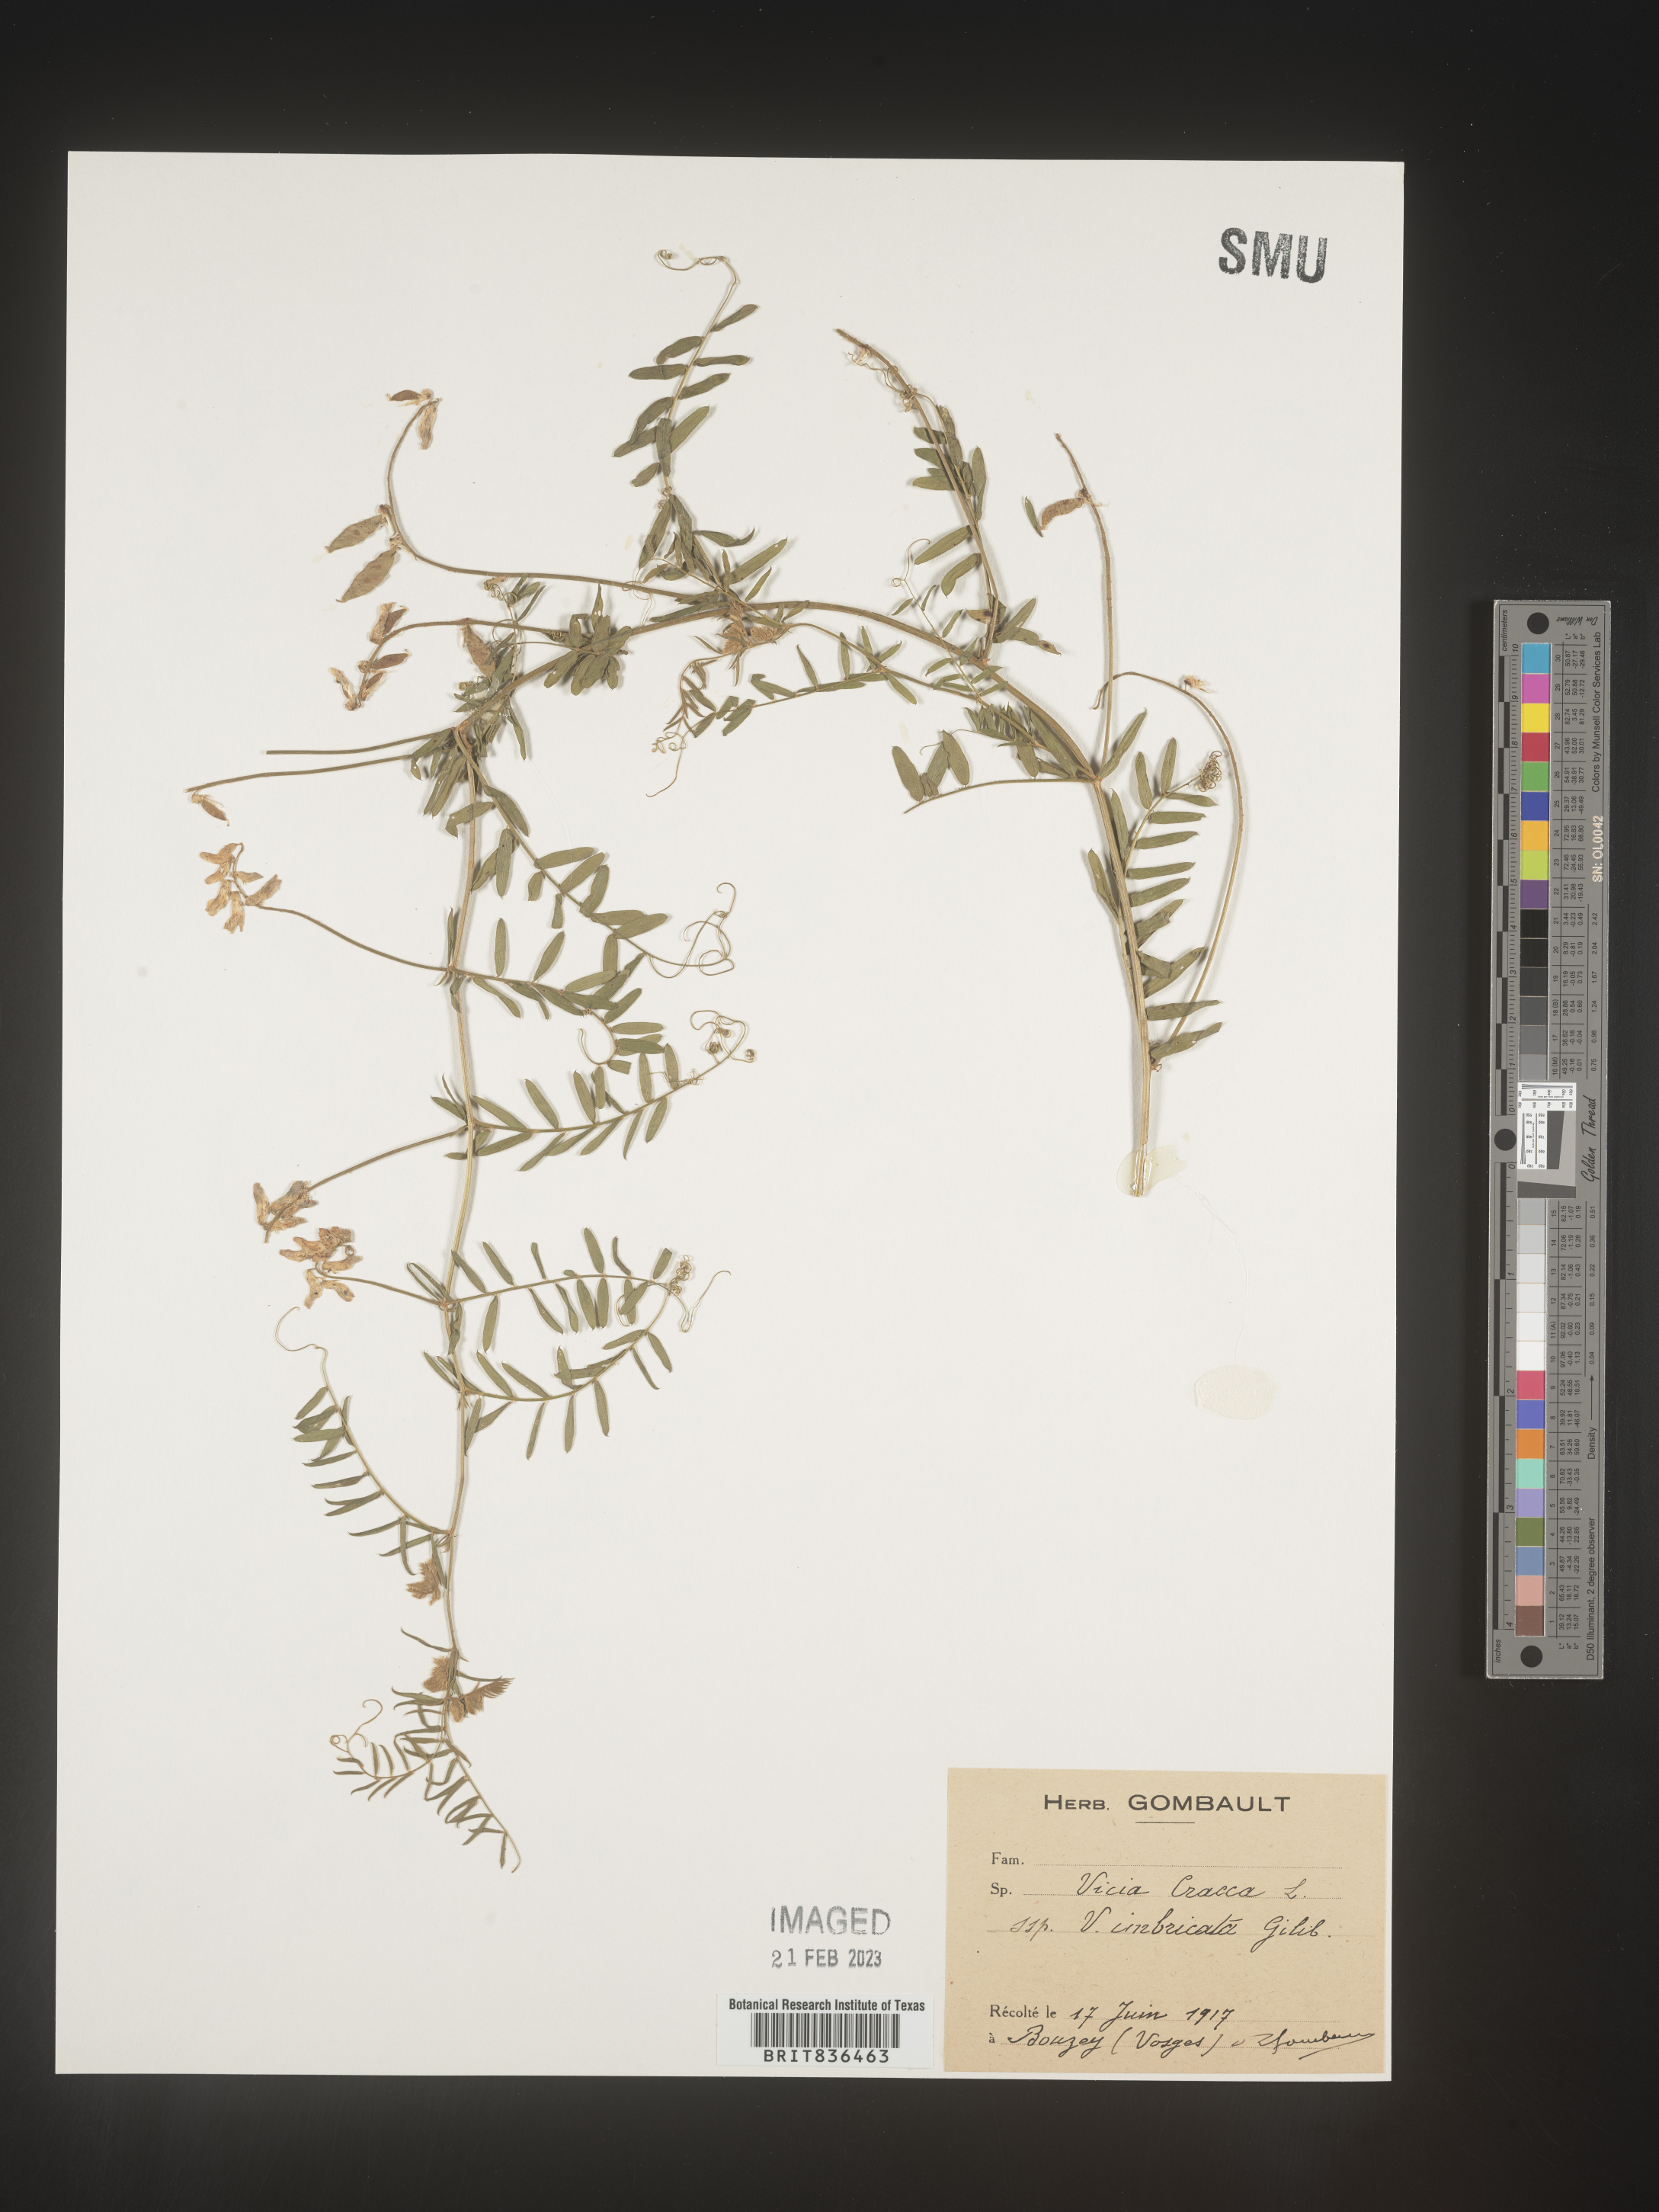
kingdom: Plantae
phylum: Tracheophyta
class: Magnoliopsida
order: Fabales
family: Fabaceae
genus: Vicia
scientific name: Vicia
